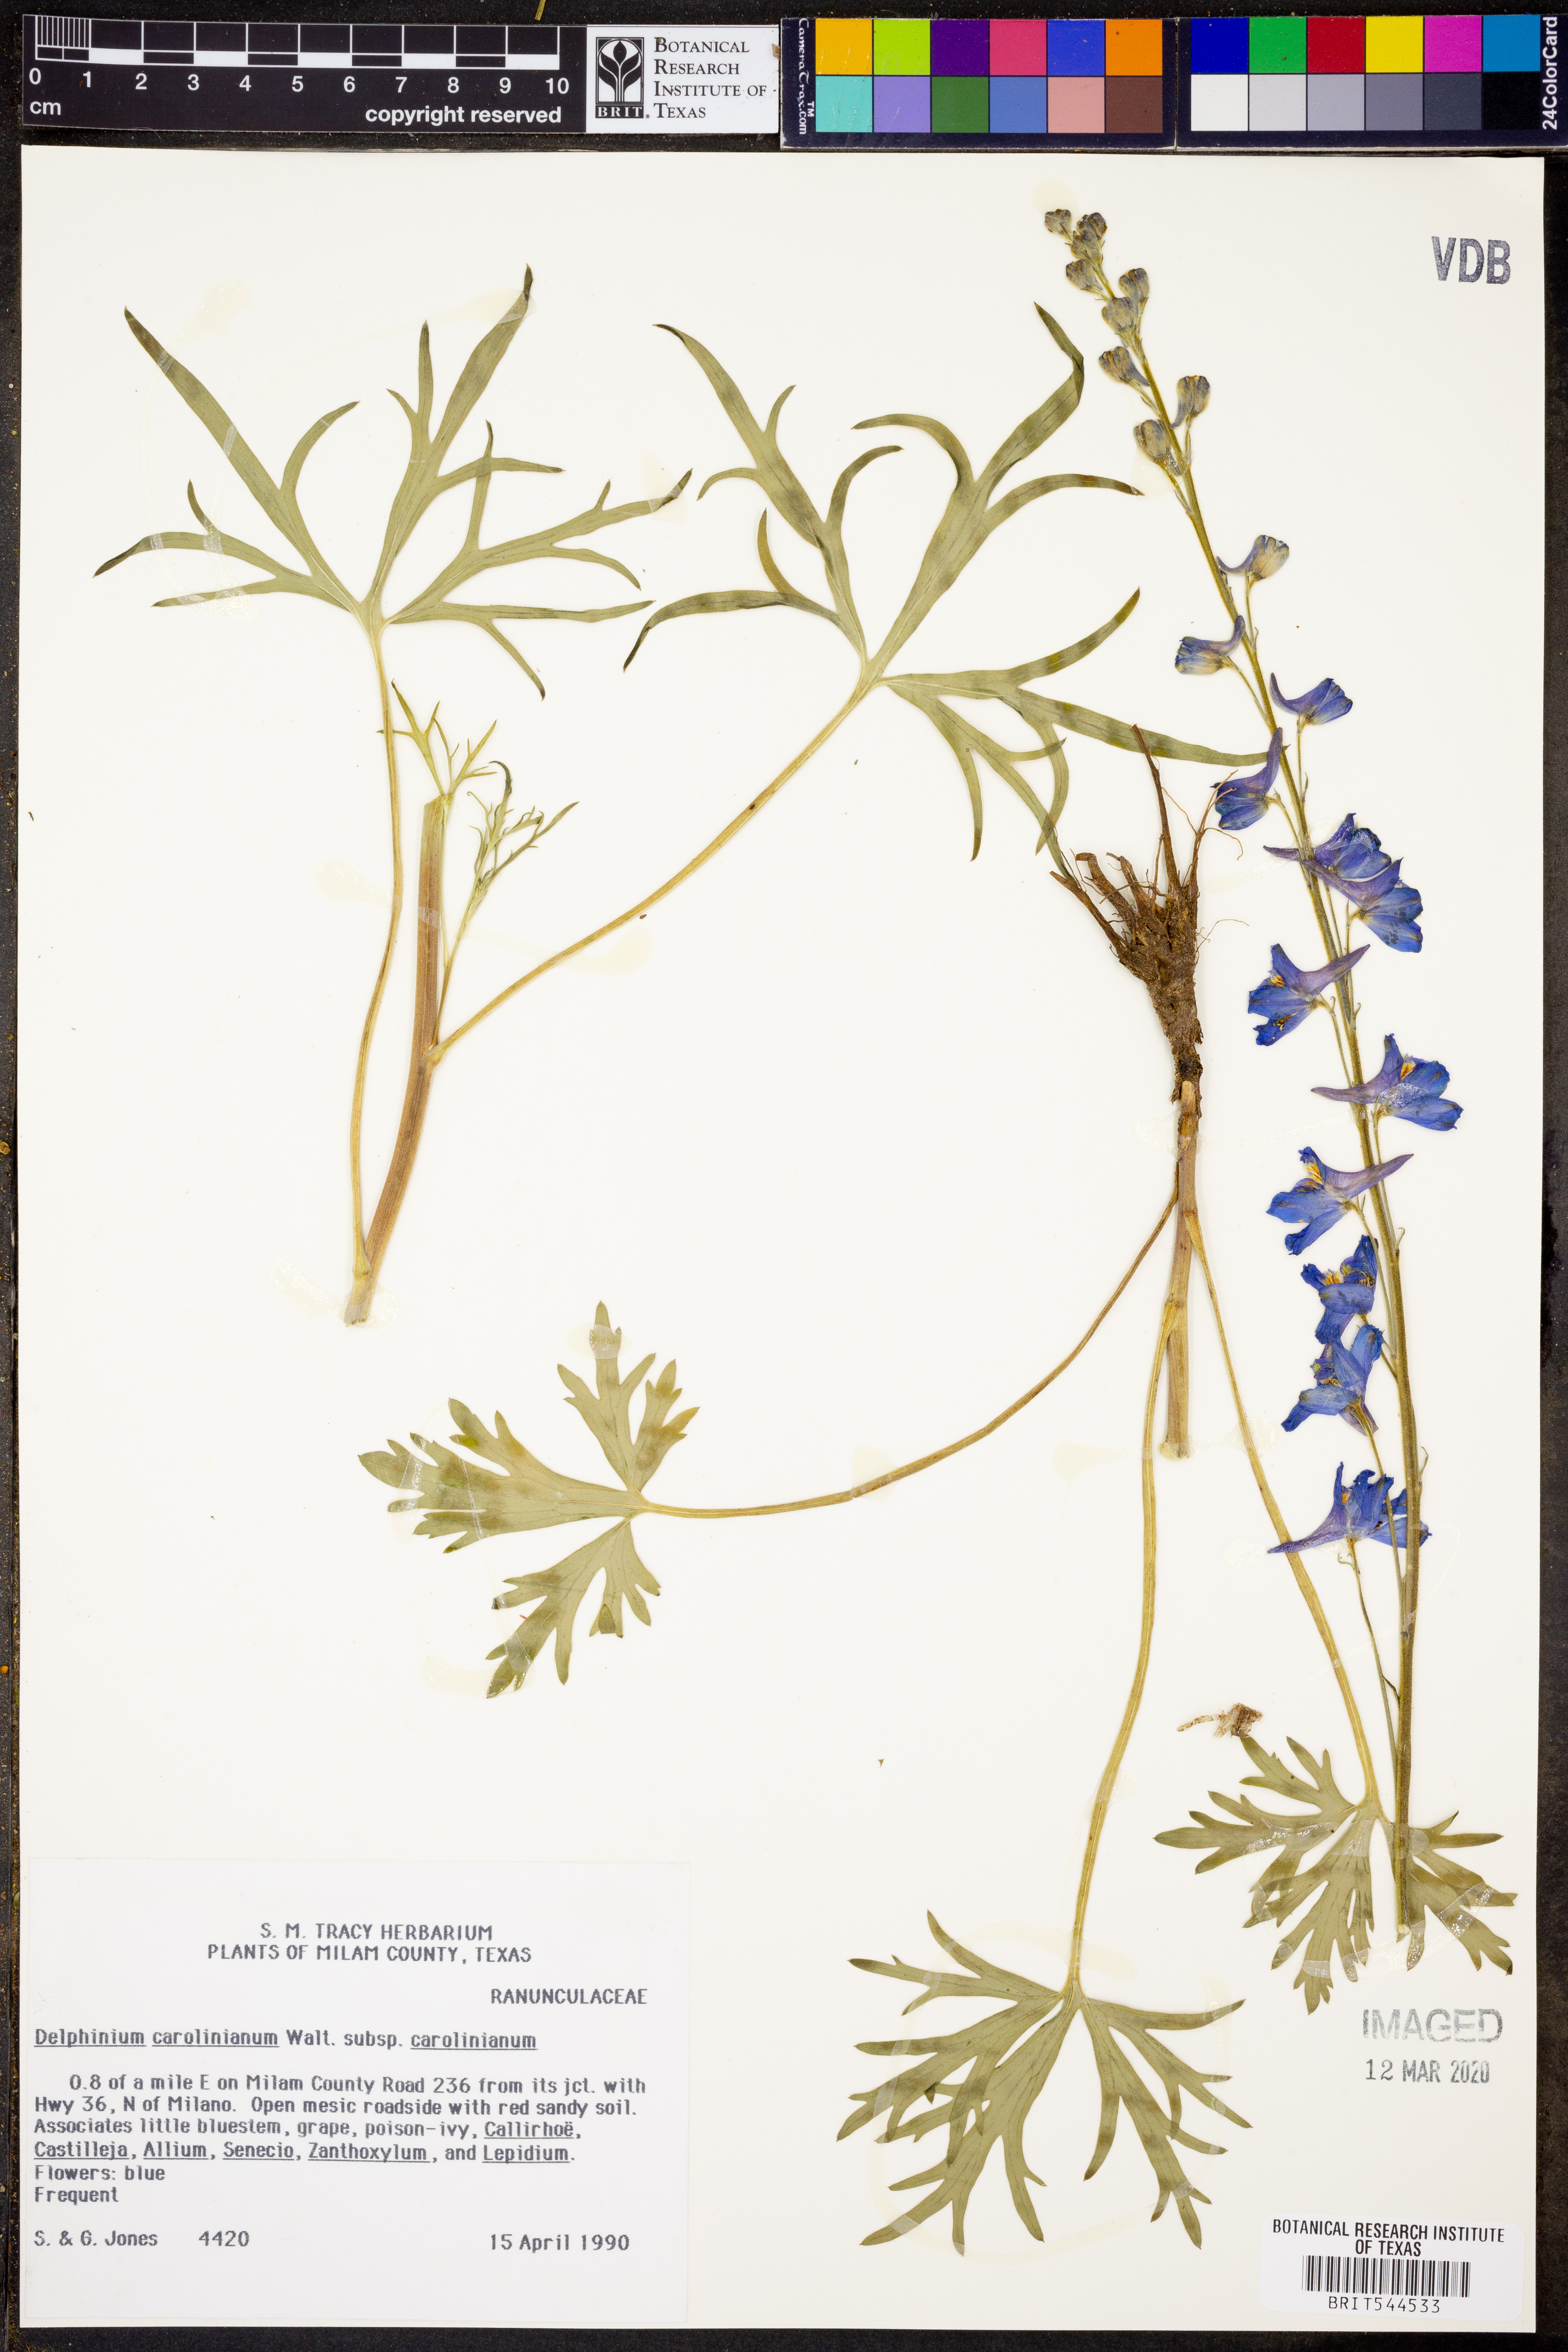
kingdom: Plantae
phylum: Tracheophyta
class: Magnoliopsida
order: Ranunculales
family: Ranunculaceae
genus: Delphinium
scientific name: Delphinium carolinianum
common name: Carolina larkspur
